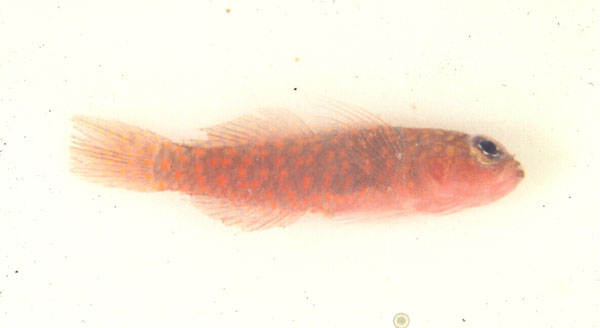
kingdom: Animalia
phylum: Chordata
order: Perciformes
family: Gobiidae
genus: Trimma
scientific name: Trimma volcana
